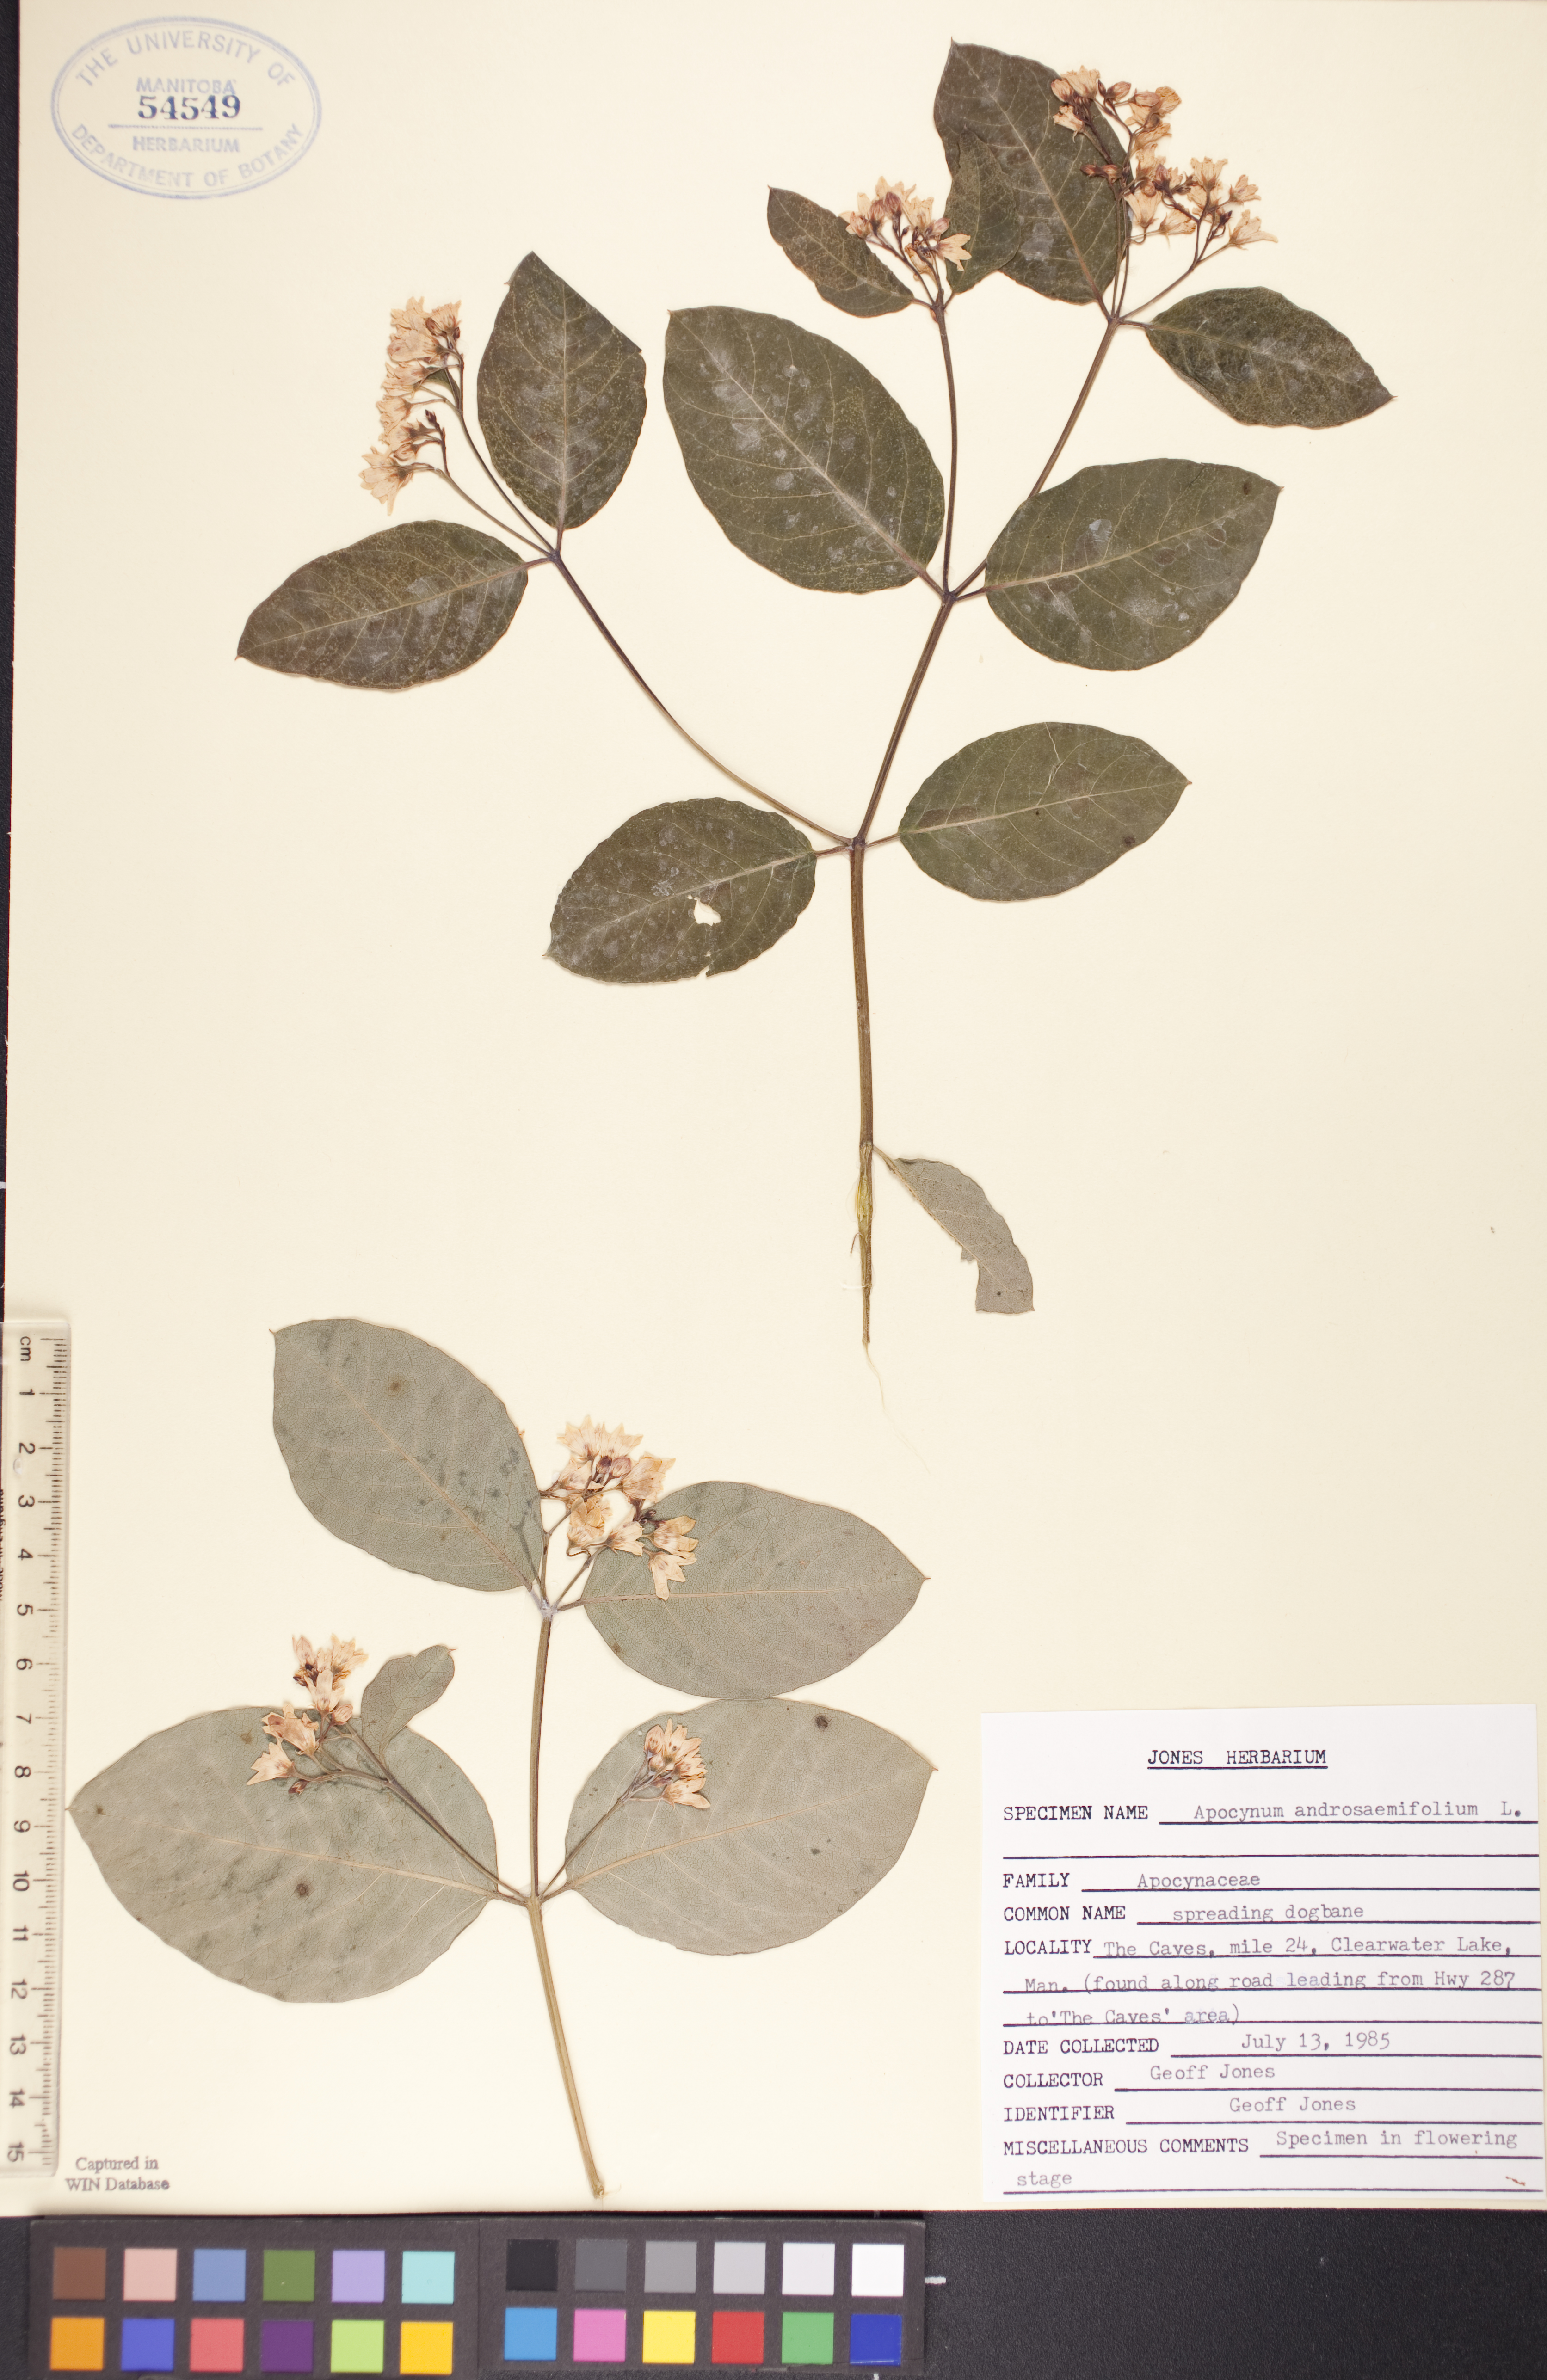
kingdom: Plantae
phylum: Tracheophyta
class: Magnoliopsida
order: Gentianales
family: Apocynaceae
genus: Apocynum
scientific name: Apocynum androsaemifolium
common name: Spreading dogbane
